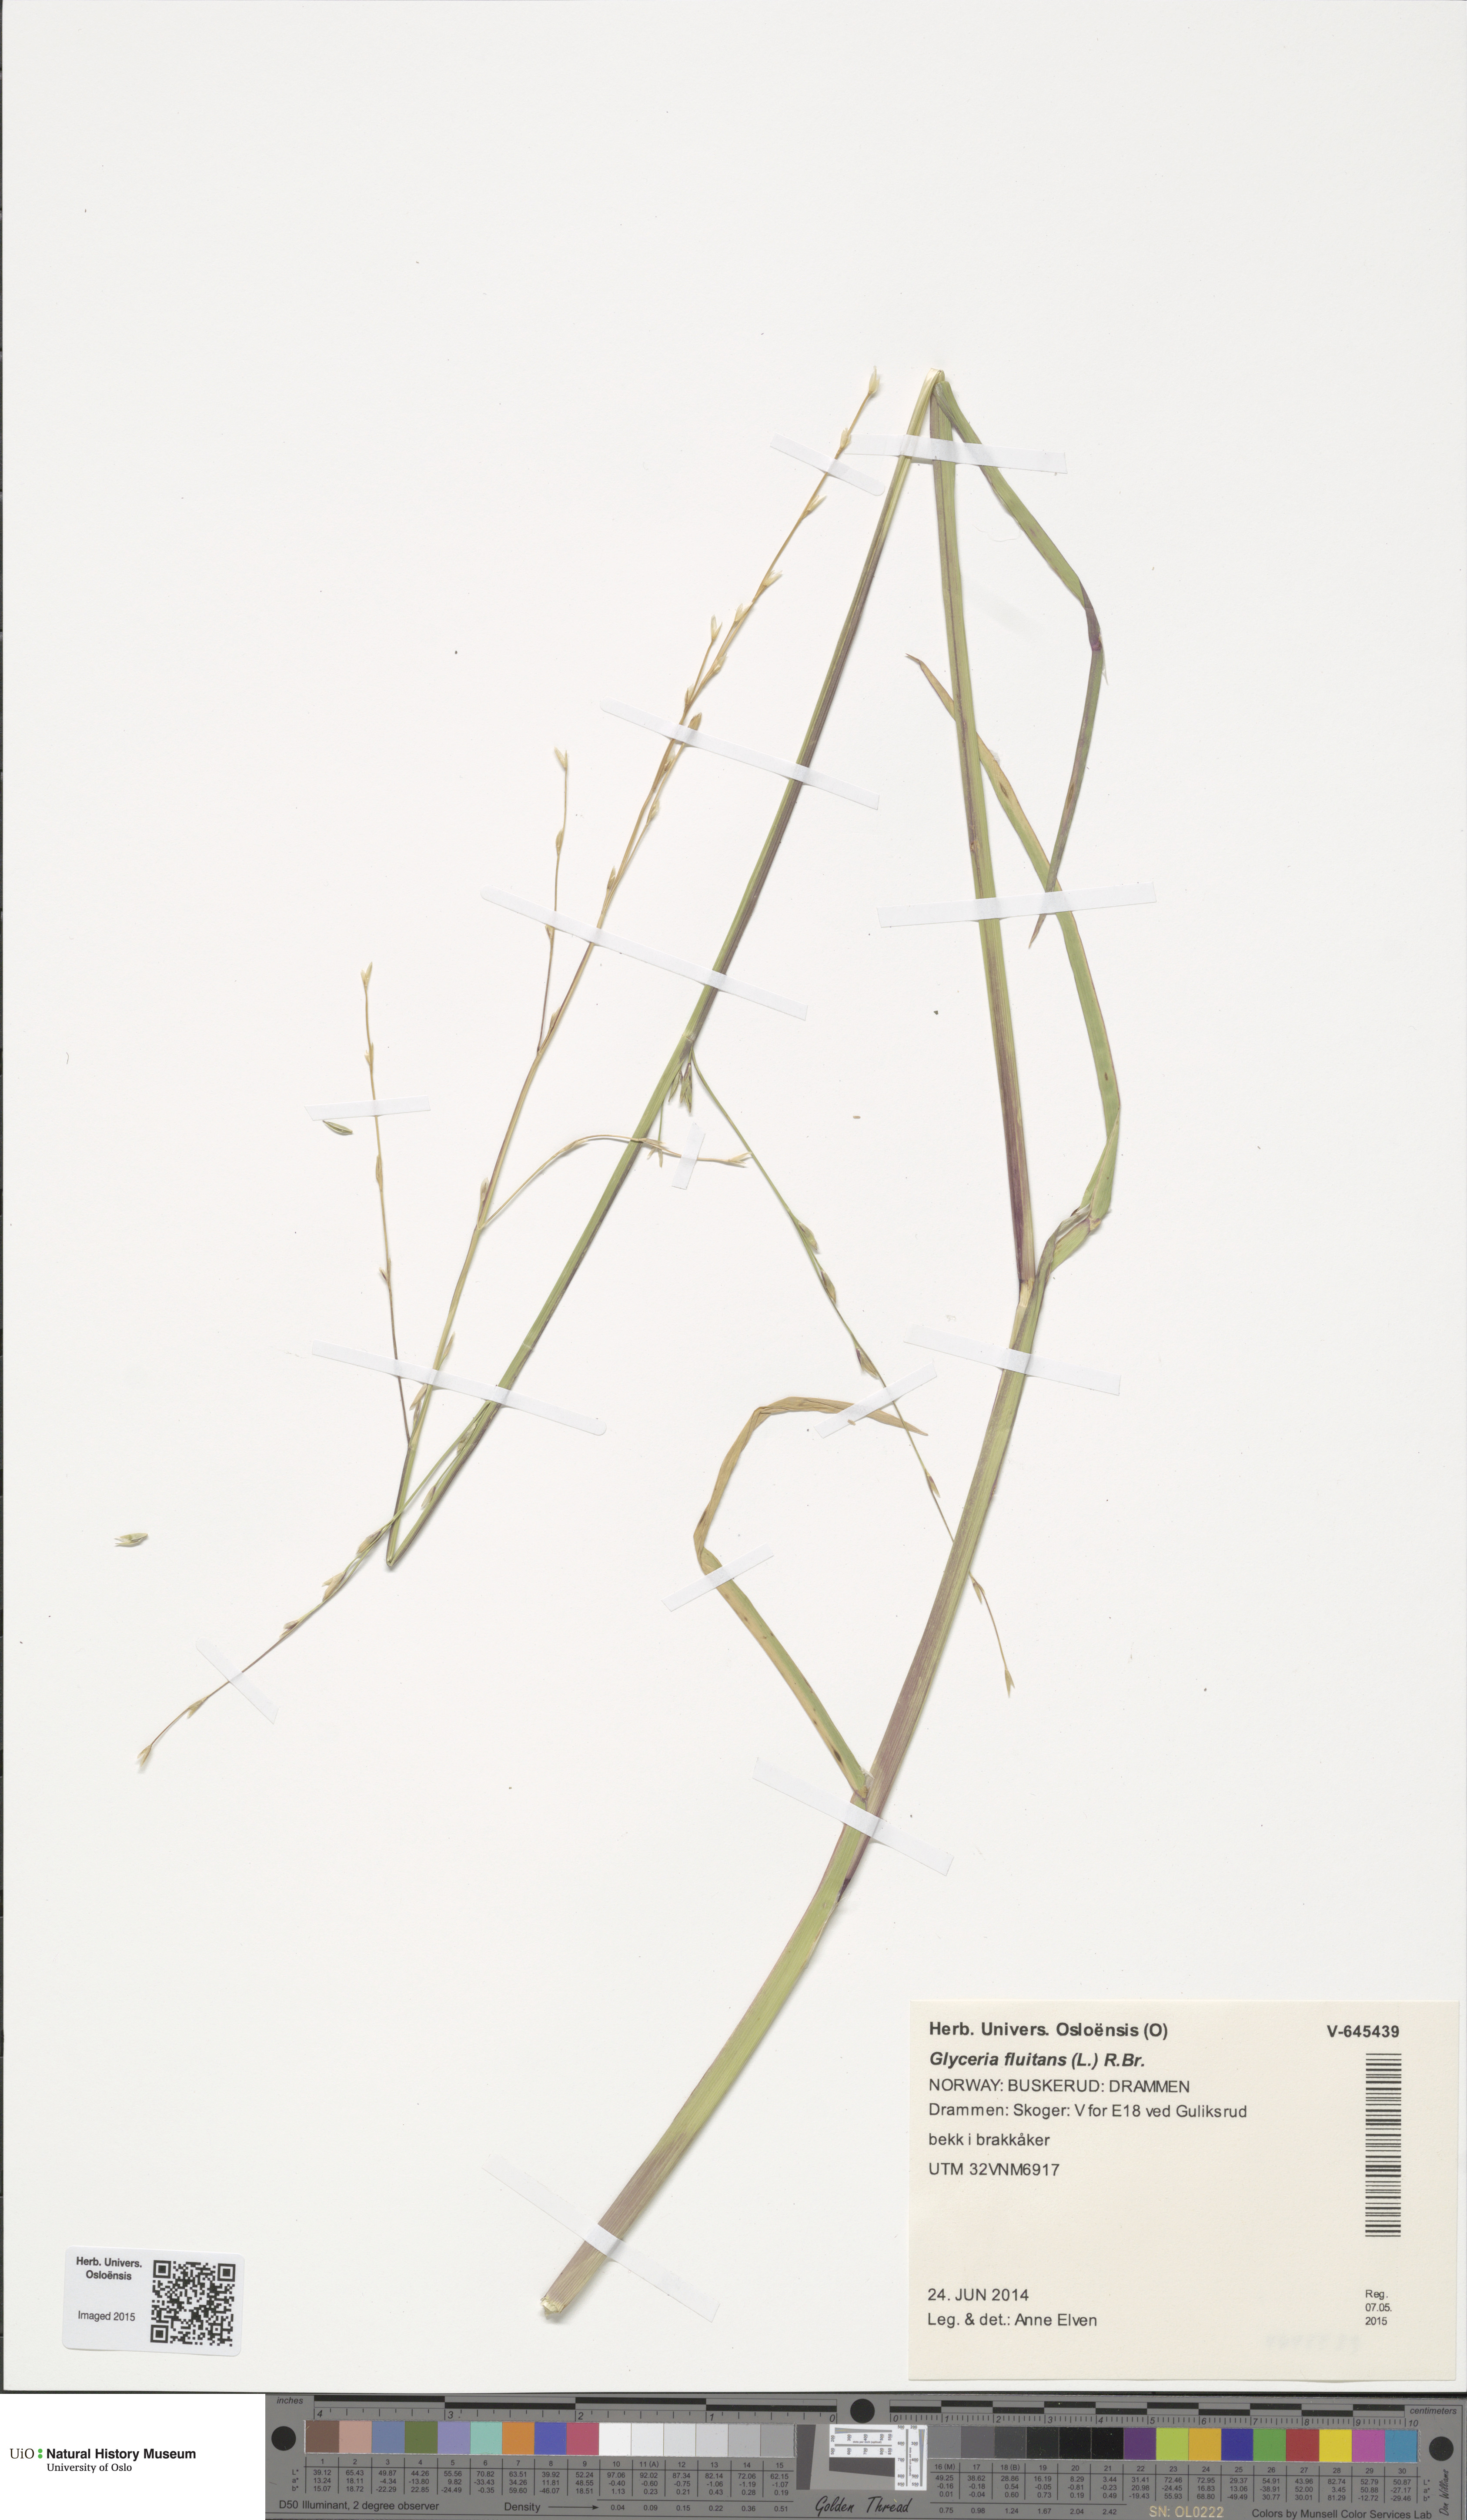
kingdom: Plantae
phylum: Tracheophyta
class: Liliopsida
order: Poales
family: Poaceae
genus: Glyceria
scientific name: Glyceria fluitans
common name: Floating sweet-grass
